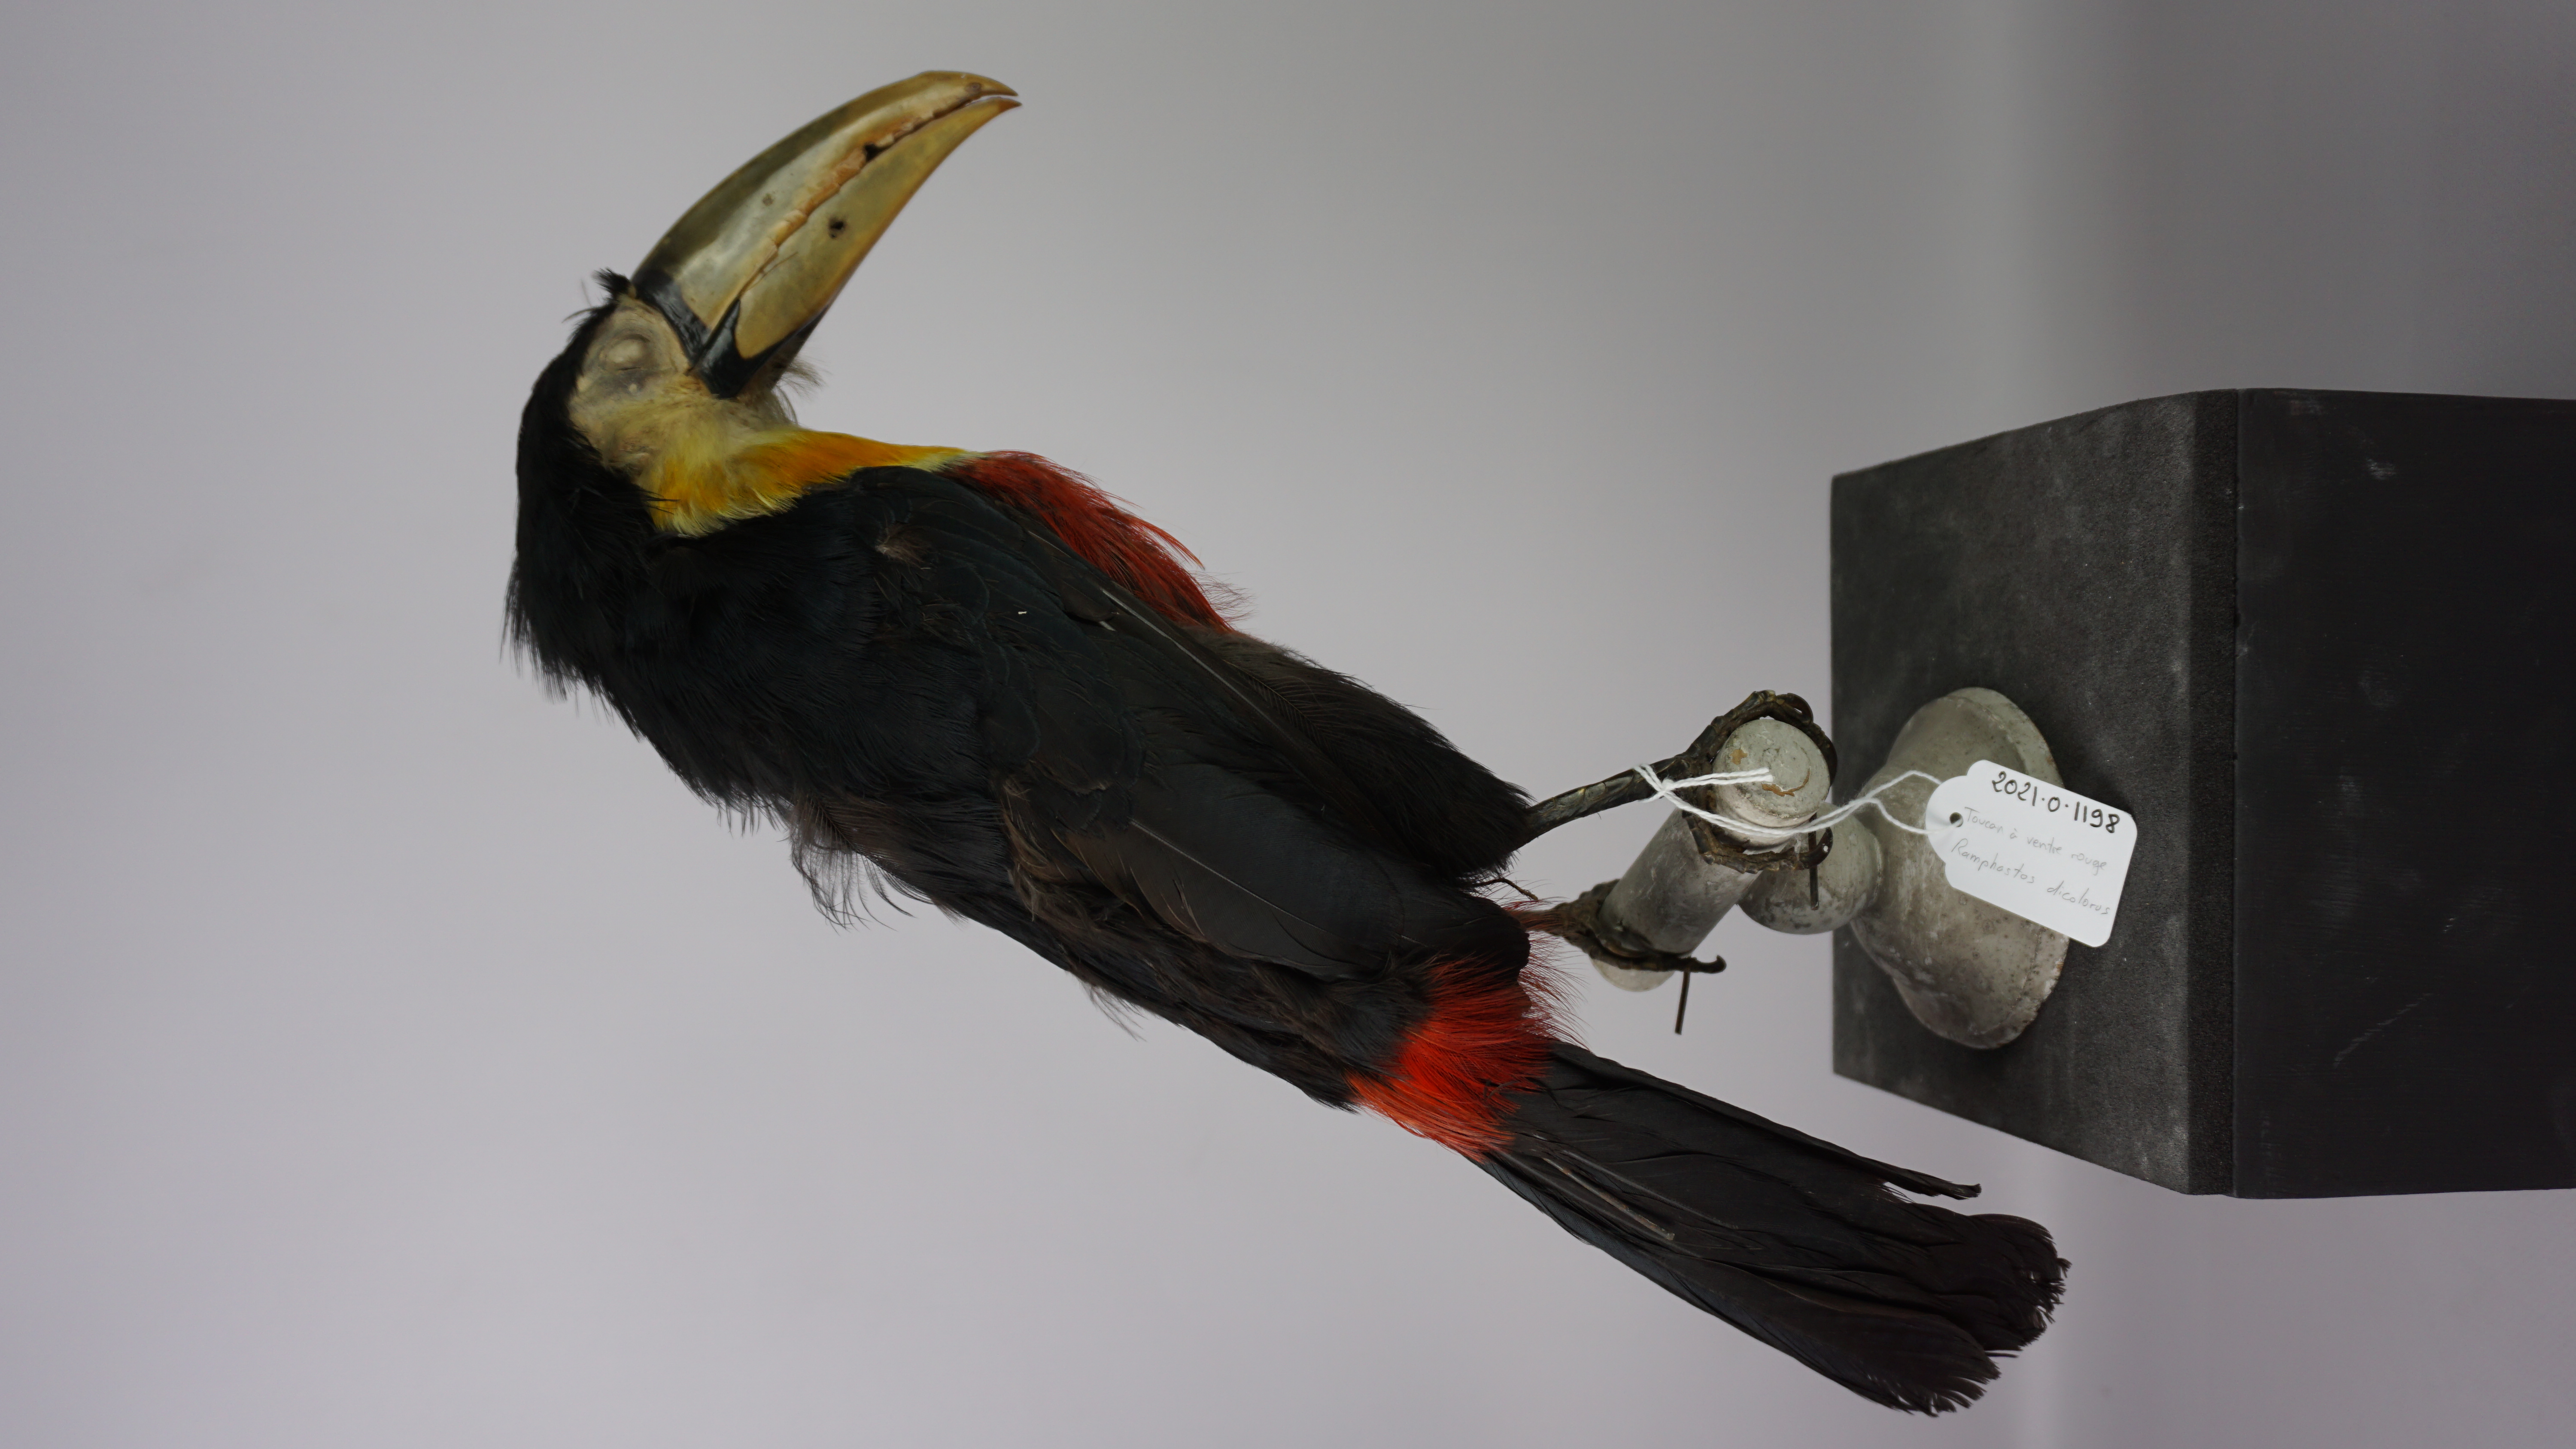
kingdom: Animalia
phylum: Chordata
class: Aves
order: Piciformes
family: Ramphastidae
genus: Ramphastos
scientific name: Ramphastos dicolorus
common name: Green-billed toucan
